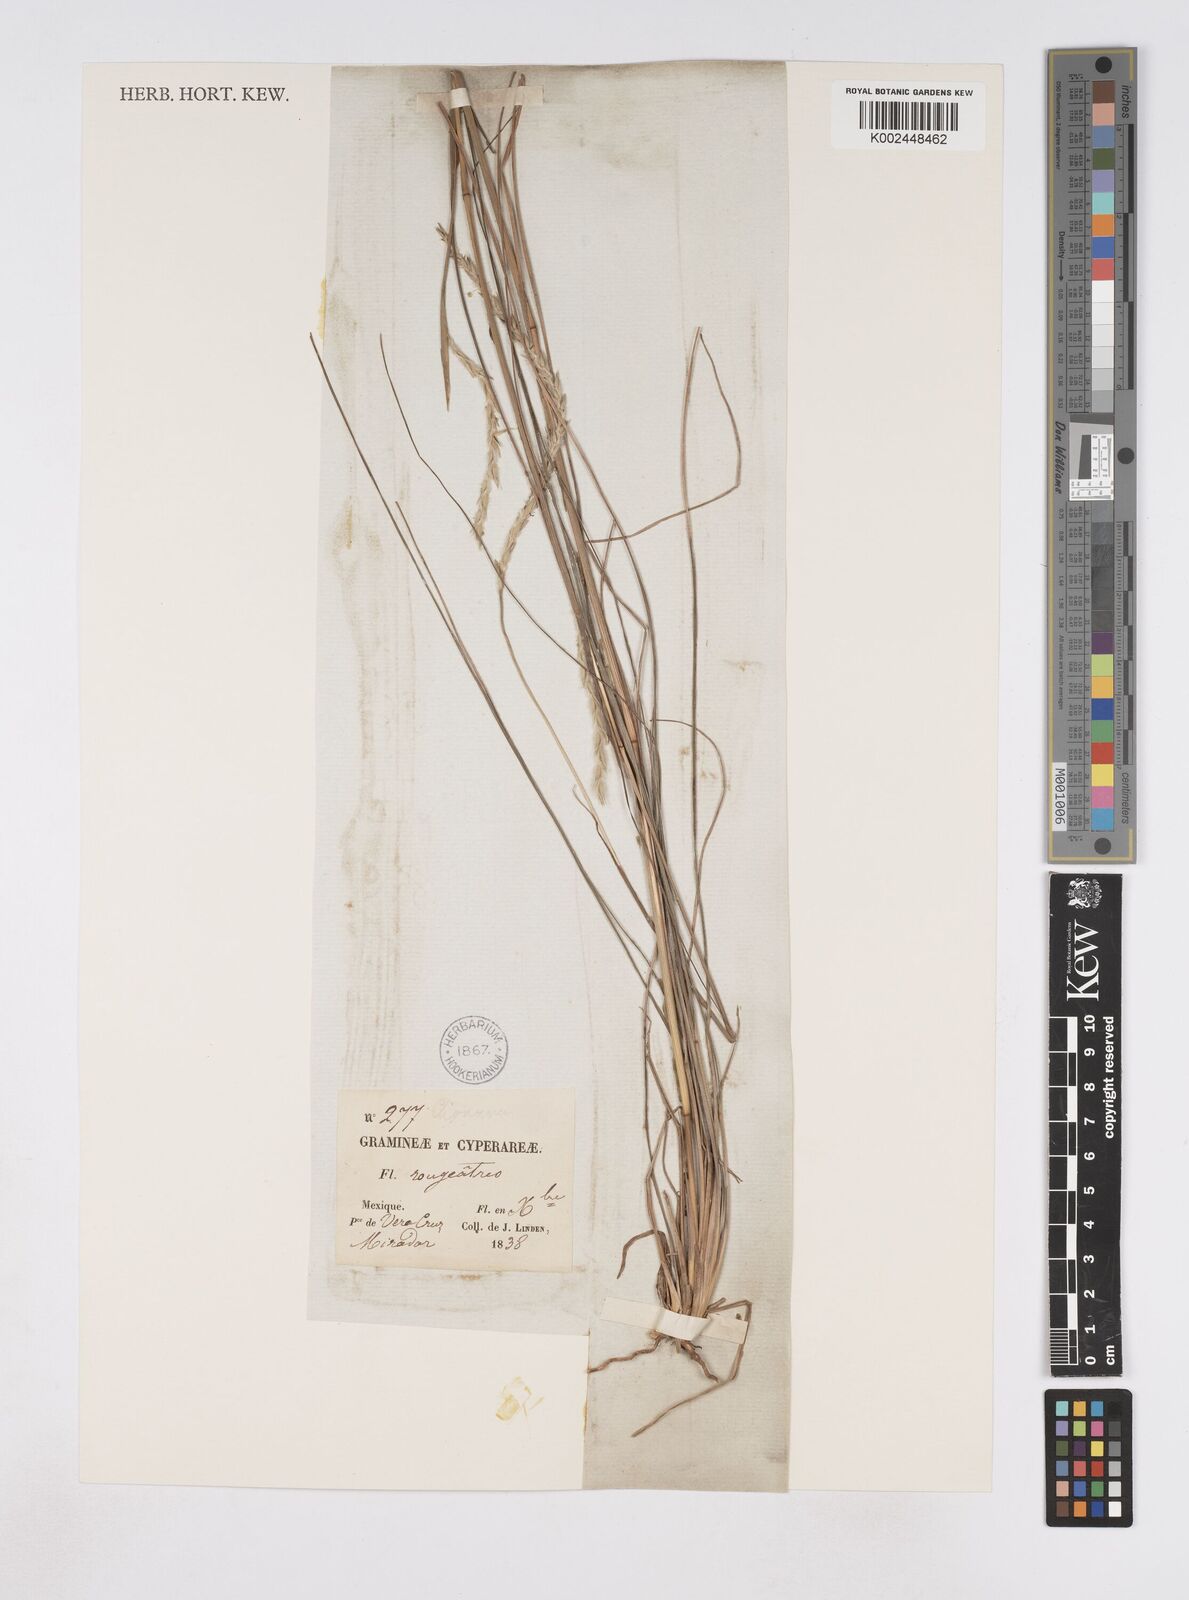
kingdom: Plantae
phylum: Tracheophyta
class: Liliopsida
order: Poales
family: Poaceae
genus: Elionurus
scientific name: Elionurus ciliaris
